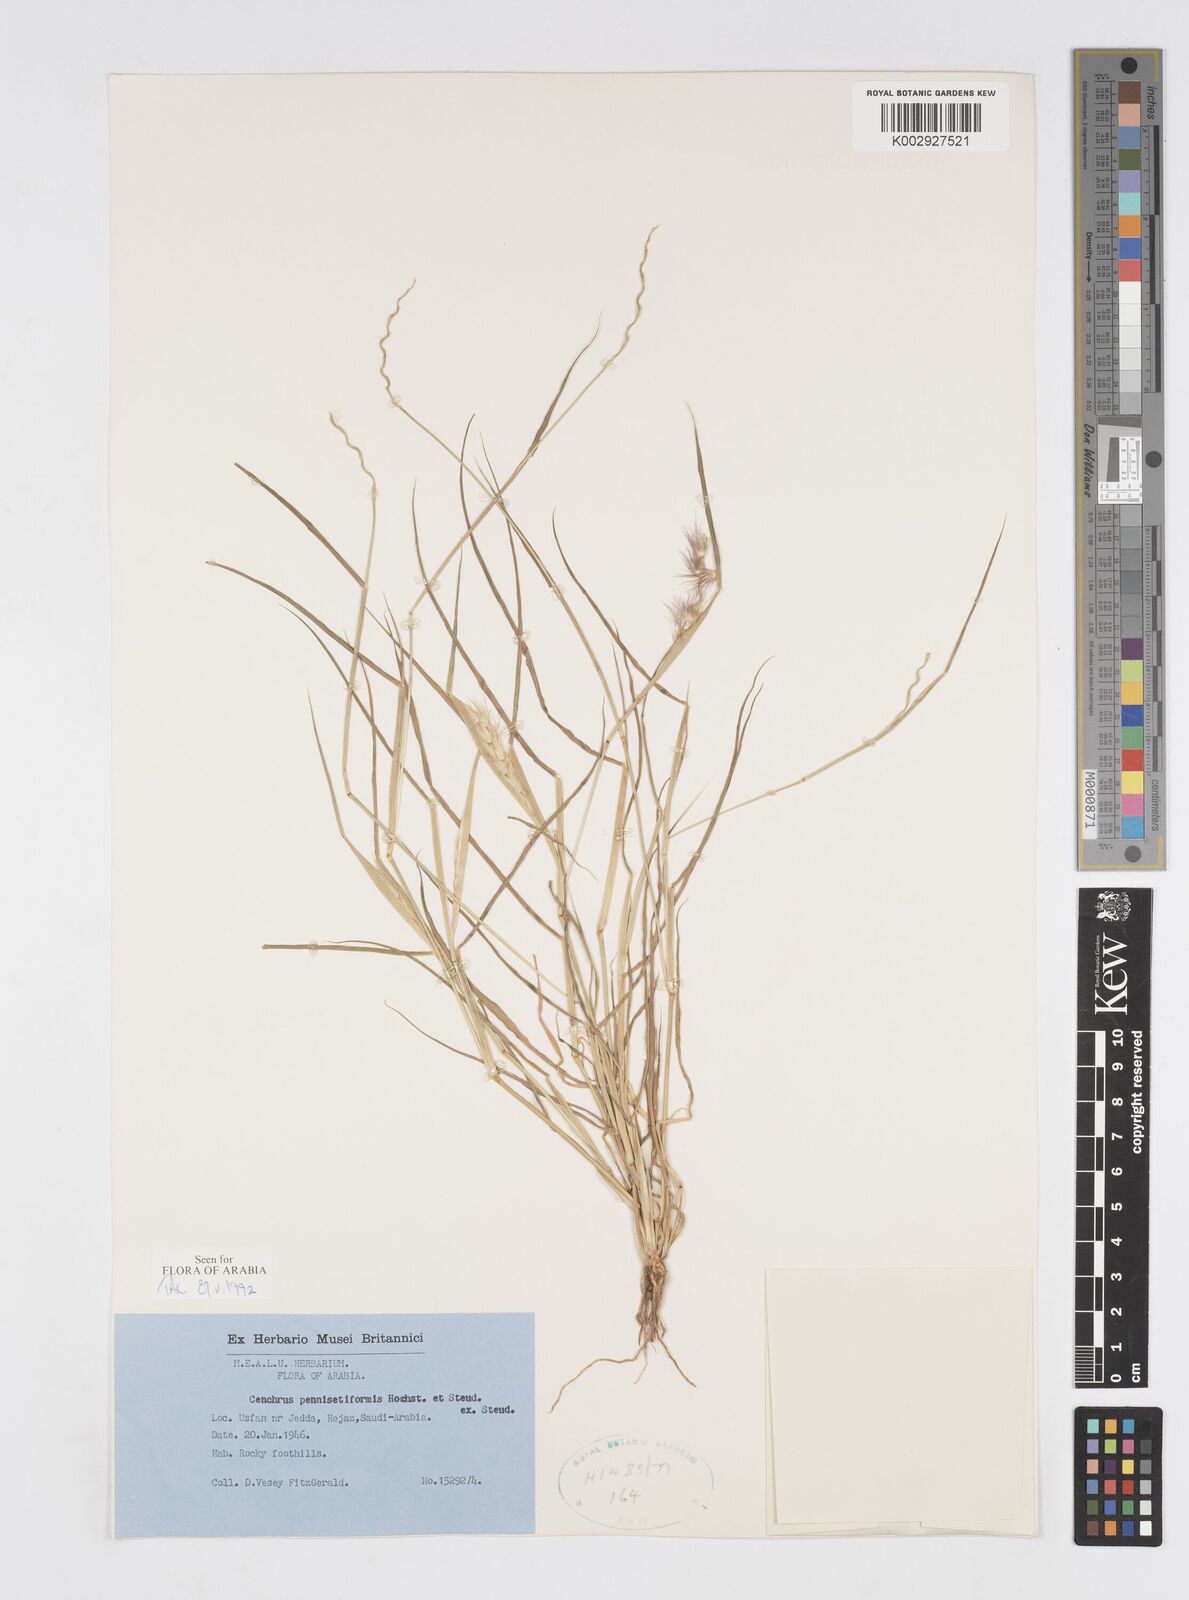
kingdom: Plantae
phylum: Tracheophyta
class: Liliopsida
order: Poales
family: Poaceae
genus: Cenchrus
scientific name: Cenchrus pennisetiformis
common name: Cloncurry
